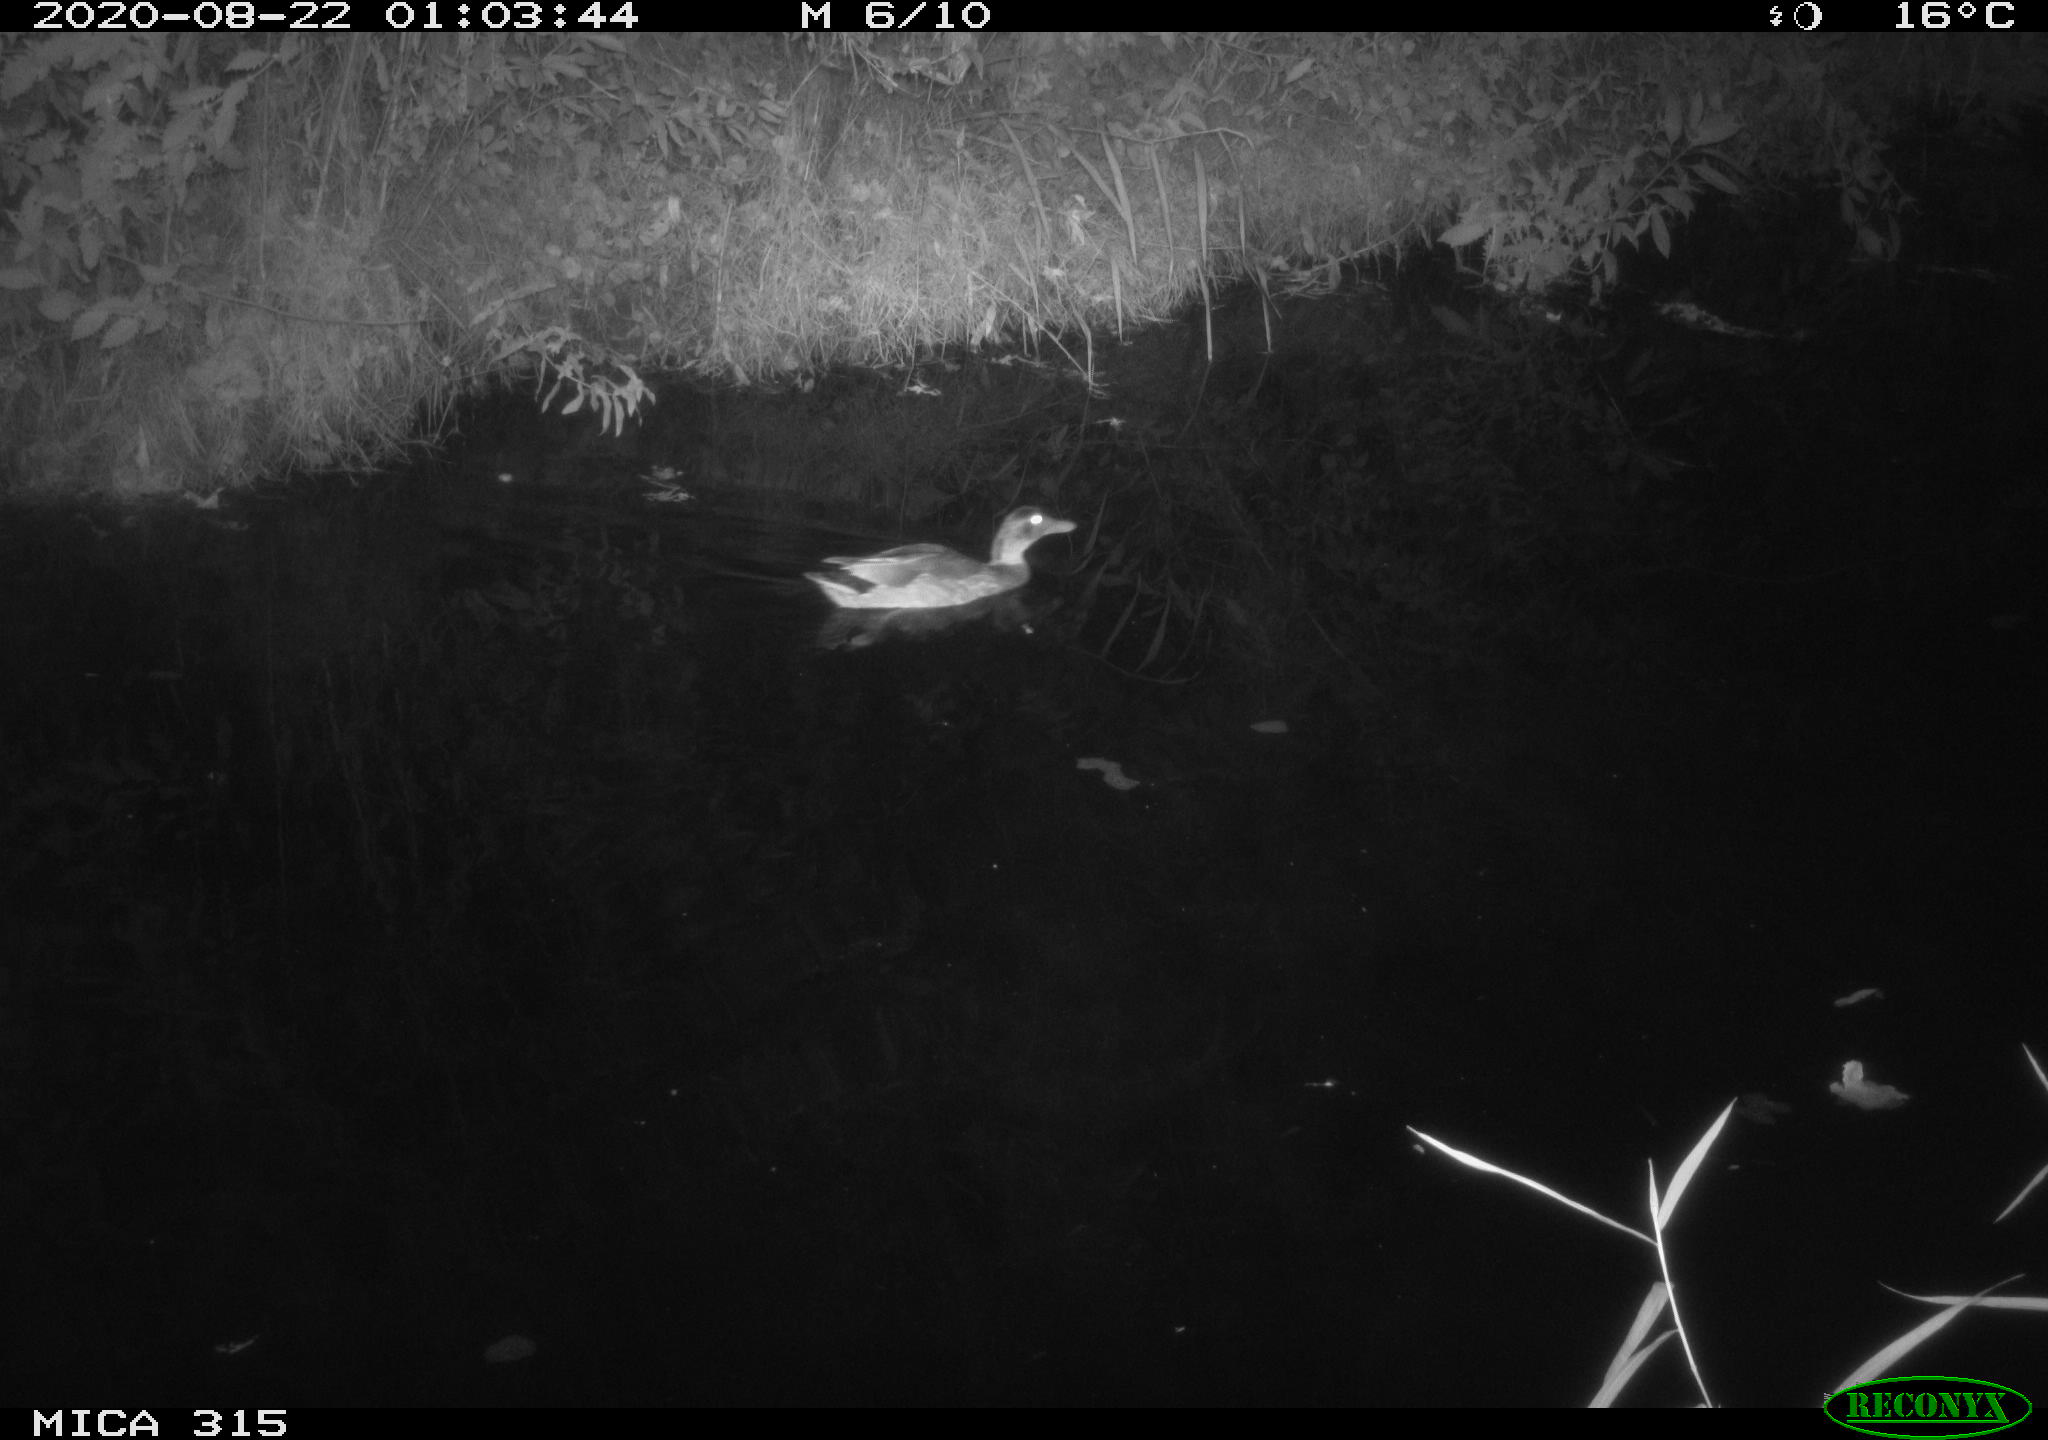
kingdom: Animalia
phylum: Chordata
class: Aves
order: Anseriformes
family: Anatidae
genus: Anas
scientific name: Anas platyrhynchos
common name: Mallard
